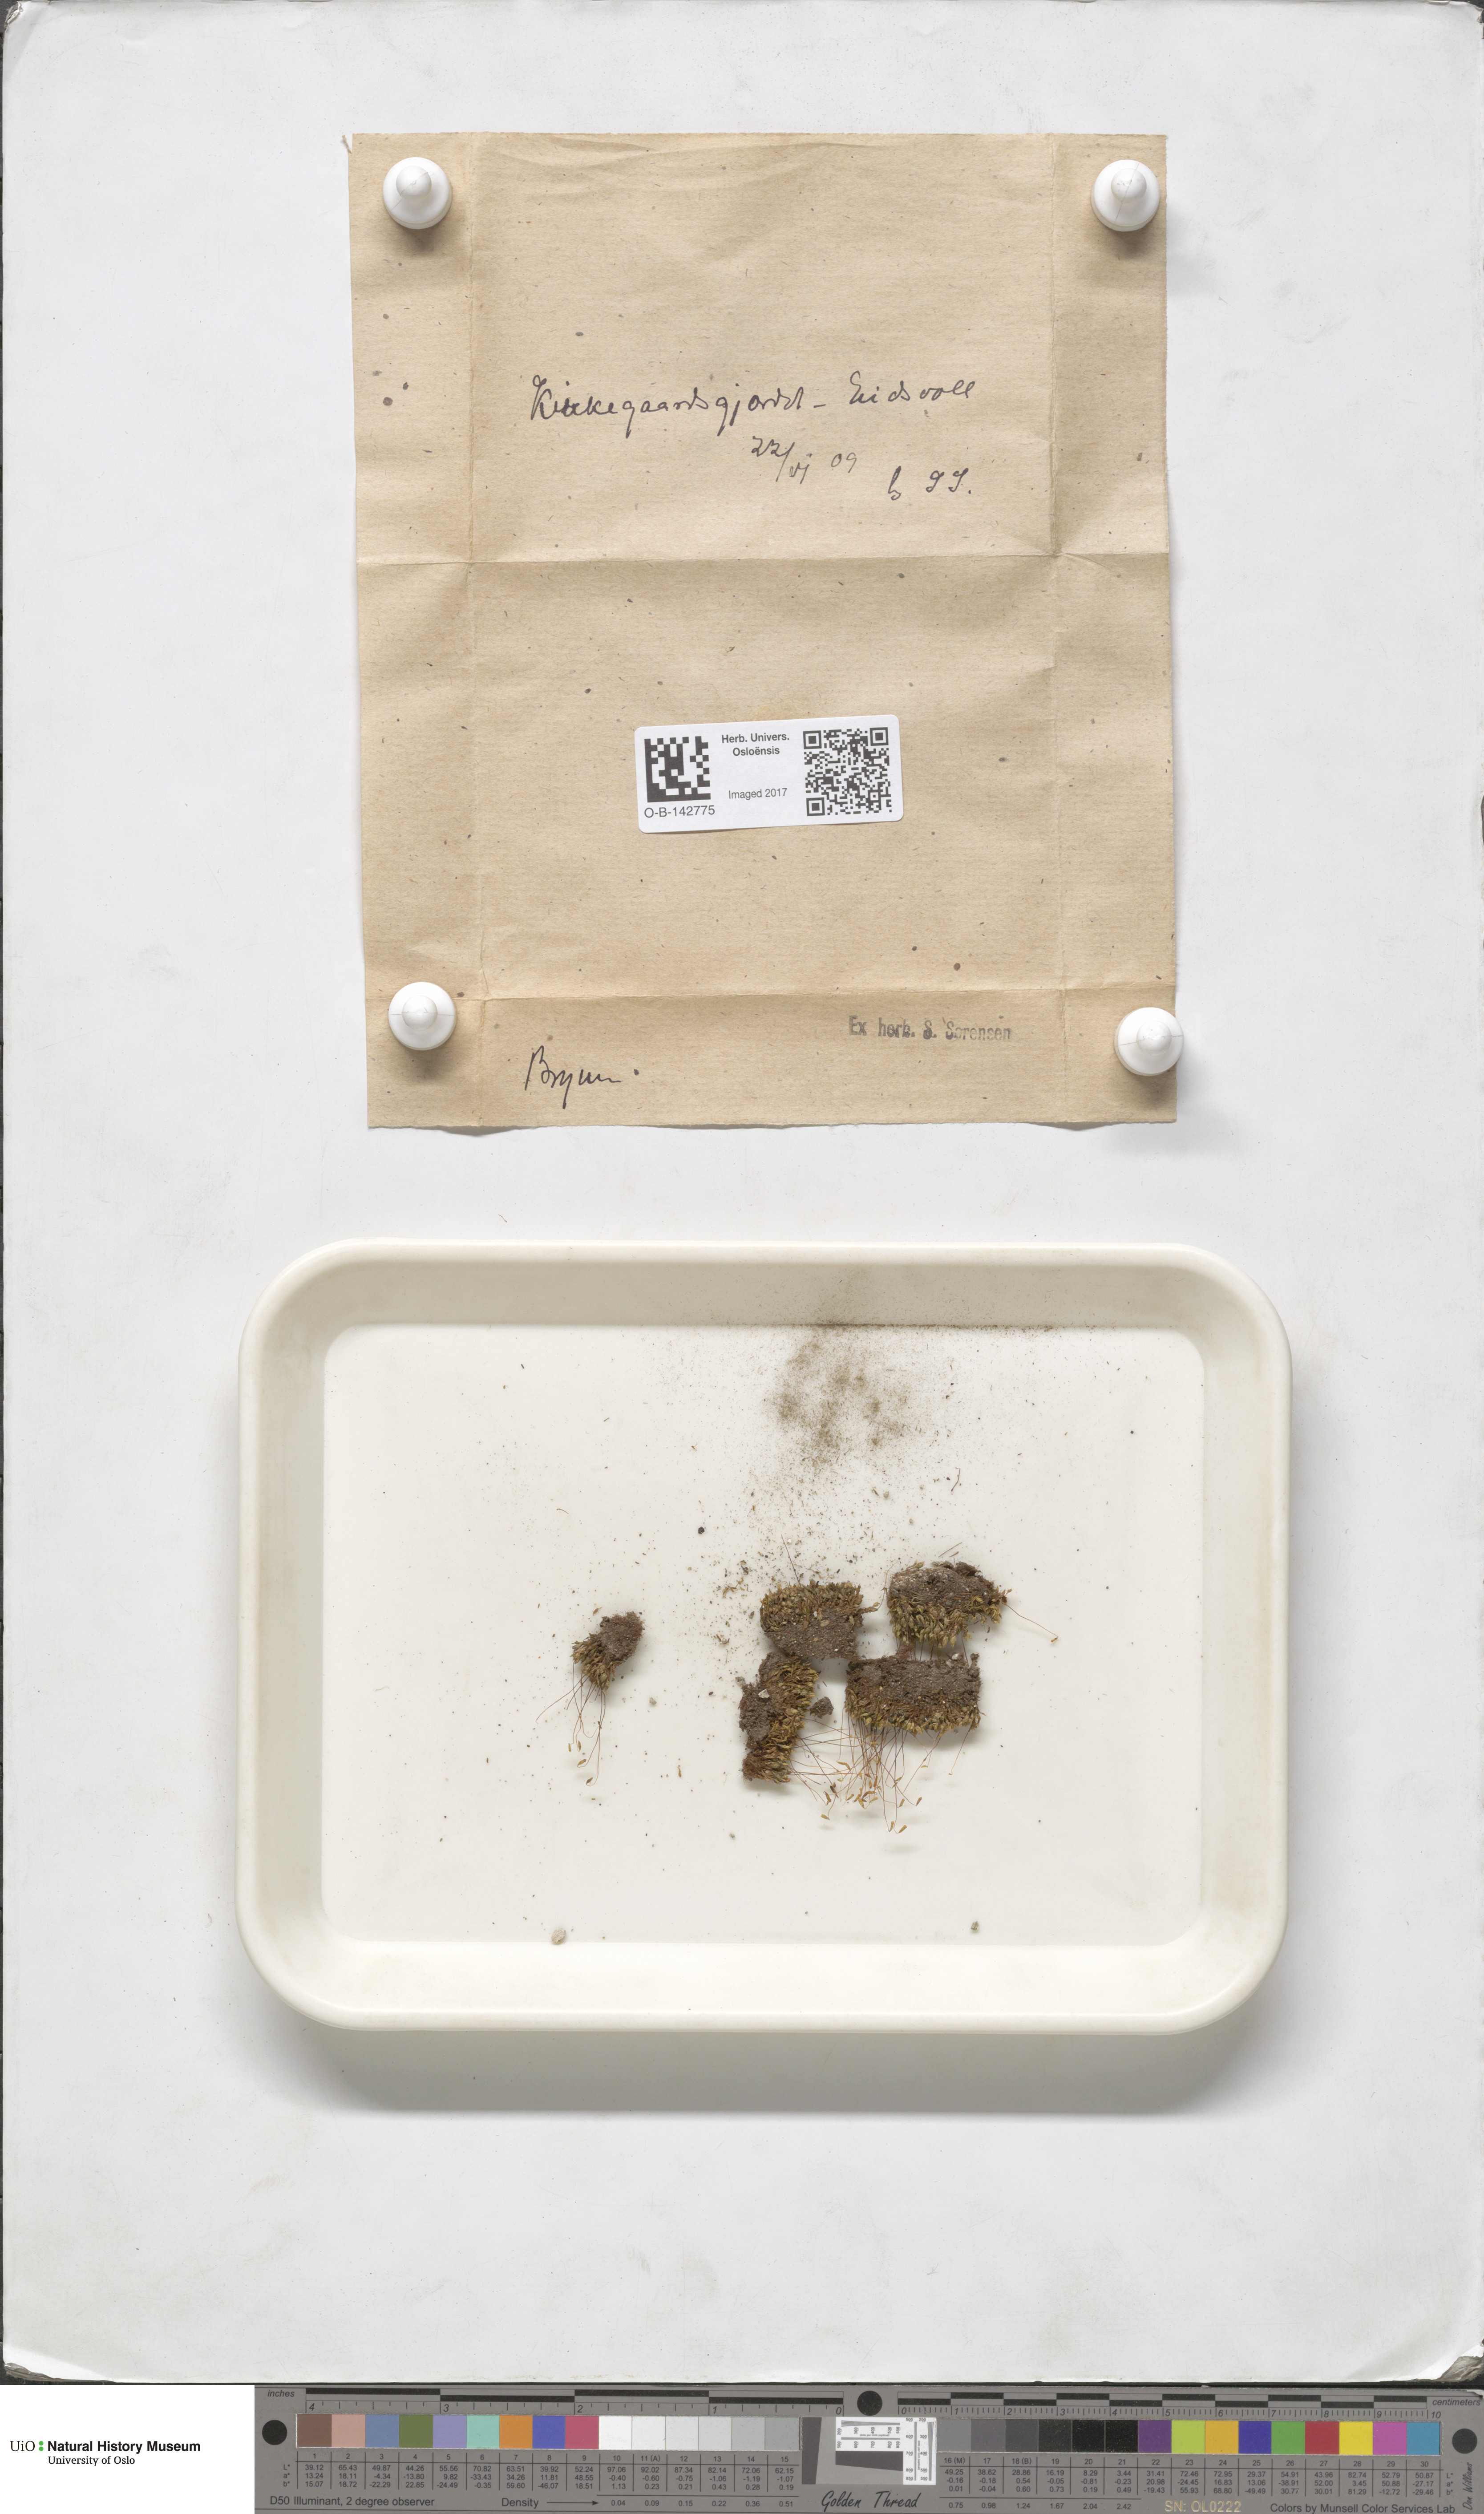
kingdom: Plantae
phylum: Bryophyta
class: Bryopsida
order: Bryales
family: Bryaceae
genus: Bryum
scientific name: Bryum
